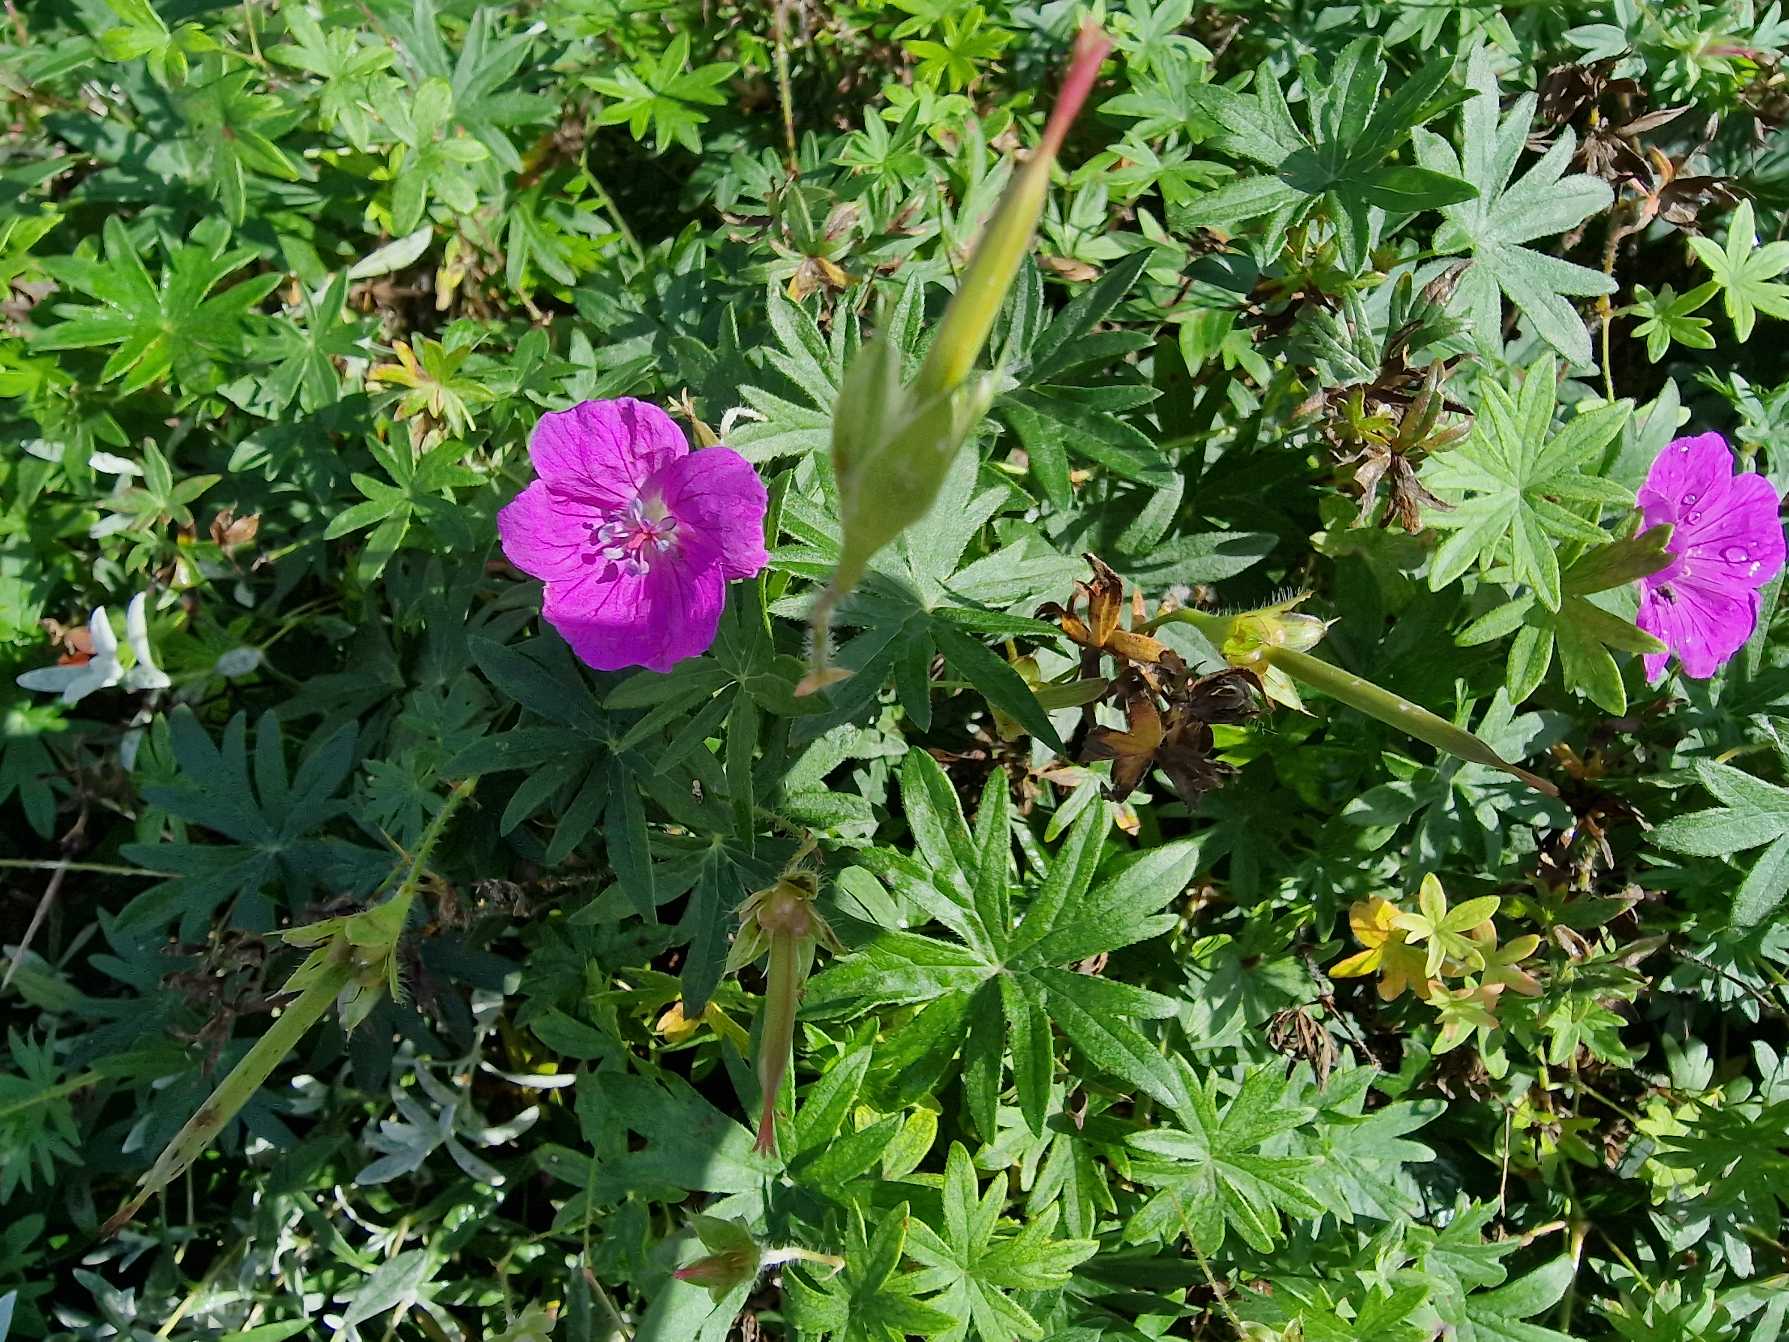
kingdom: Plantae
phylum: Tracheophyta
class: Magnoliopsida
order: Geraniales
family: Geraniaceae
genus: Geranium
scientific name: Geranium sanguineum
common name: Blodrød storkenæb
